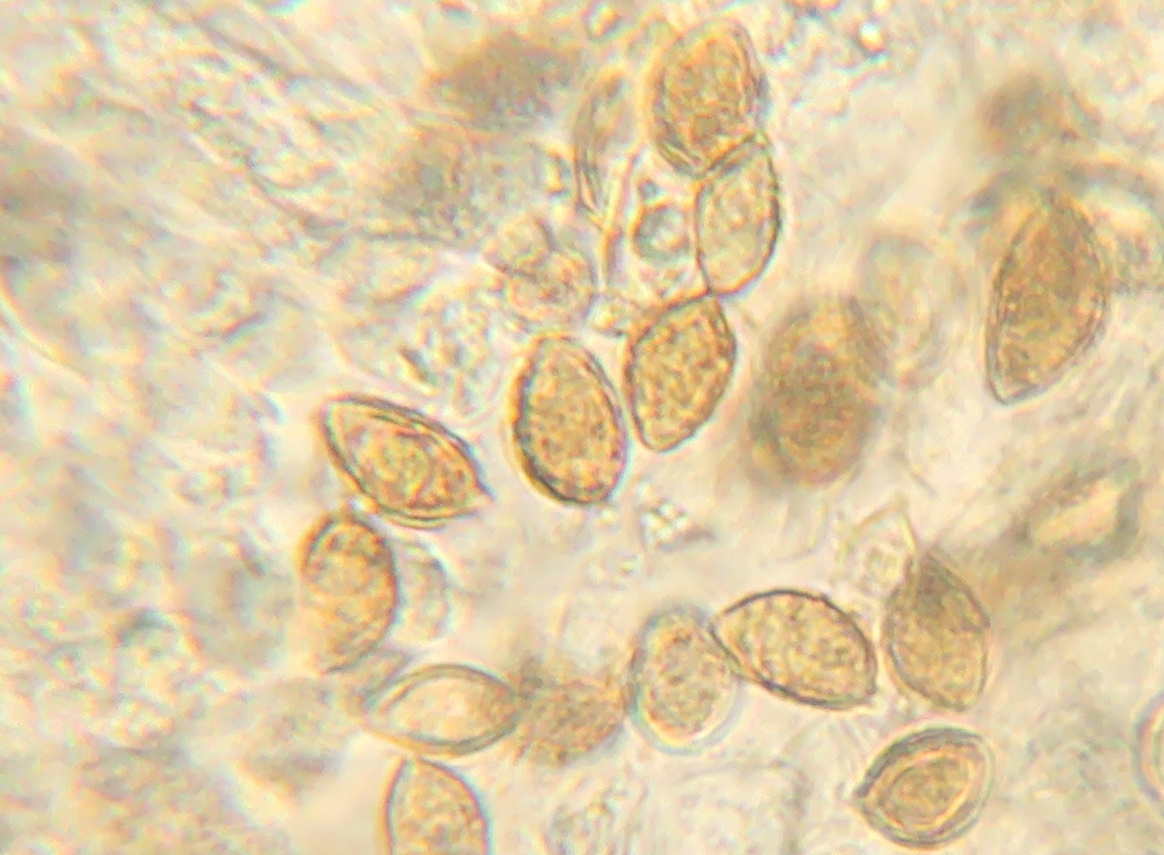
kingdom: Fungi
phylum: Basidiomycota
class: Agaricomycetes
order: Agaricales
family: Hymenogastraceae
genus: Hebeloma
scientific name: Hebeloma sacchariolens
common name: sødtduftende tåreblad
